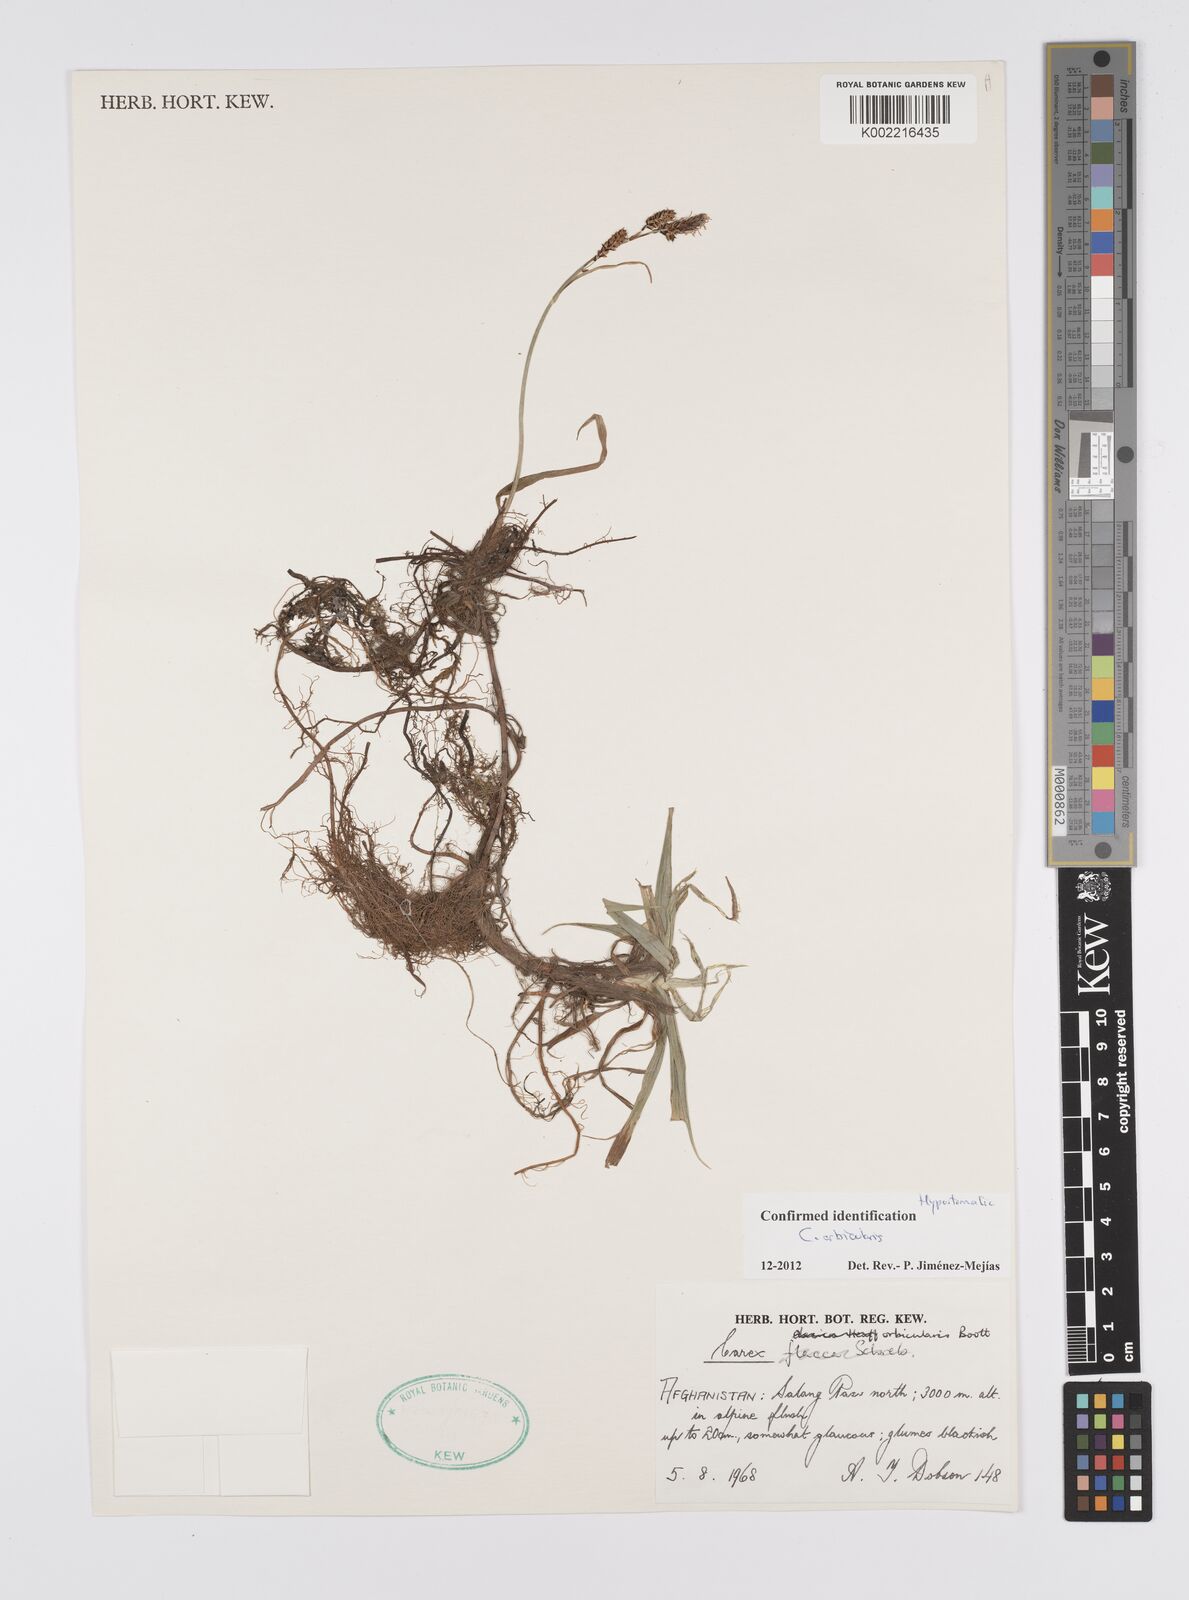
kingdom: Plantae
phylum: Tracheophyta
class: Liliopsida
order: Poales
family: Cyperaceae
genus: Carex
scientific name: Carex orbicularis
